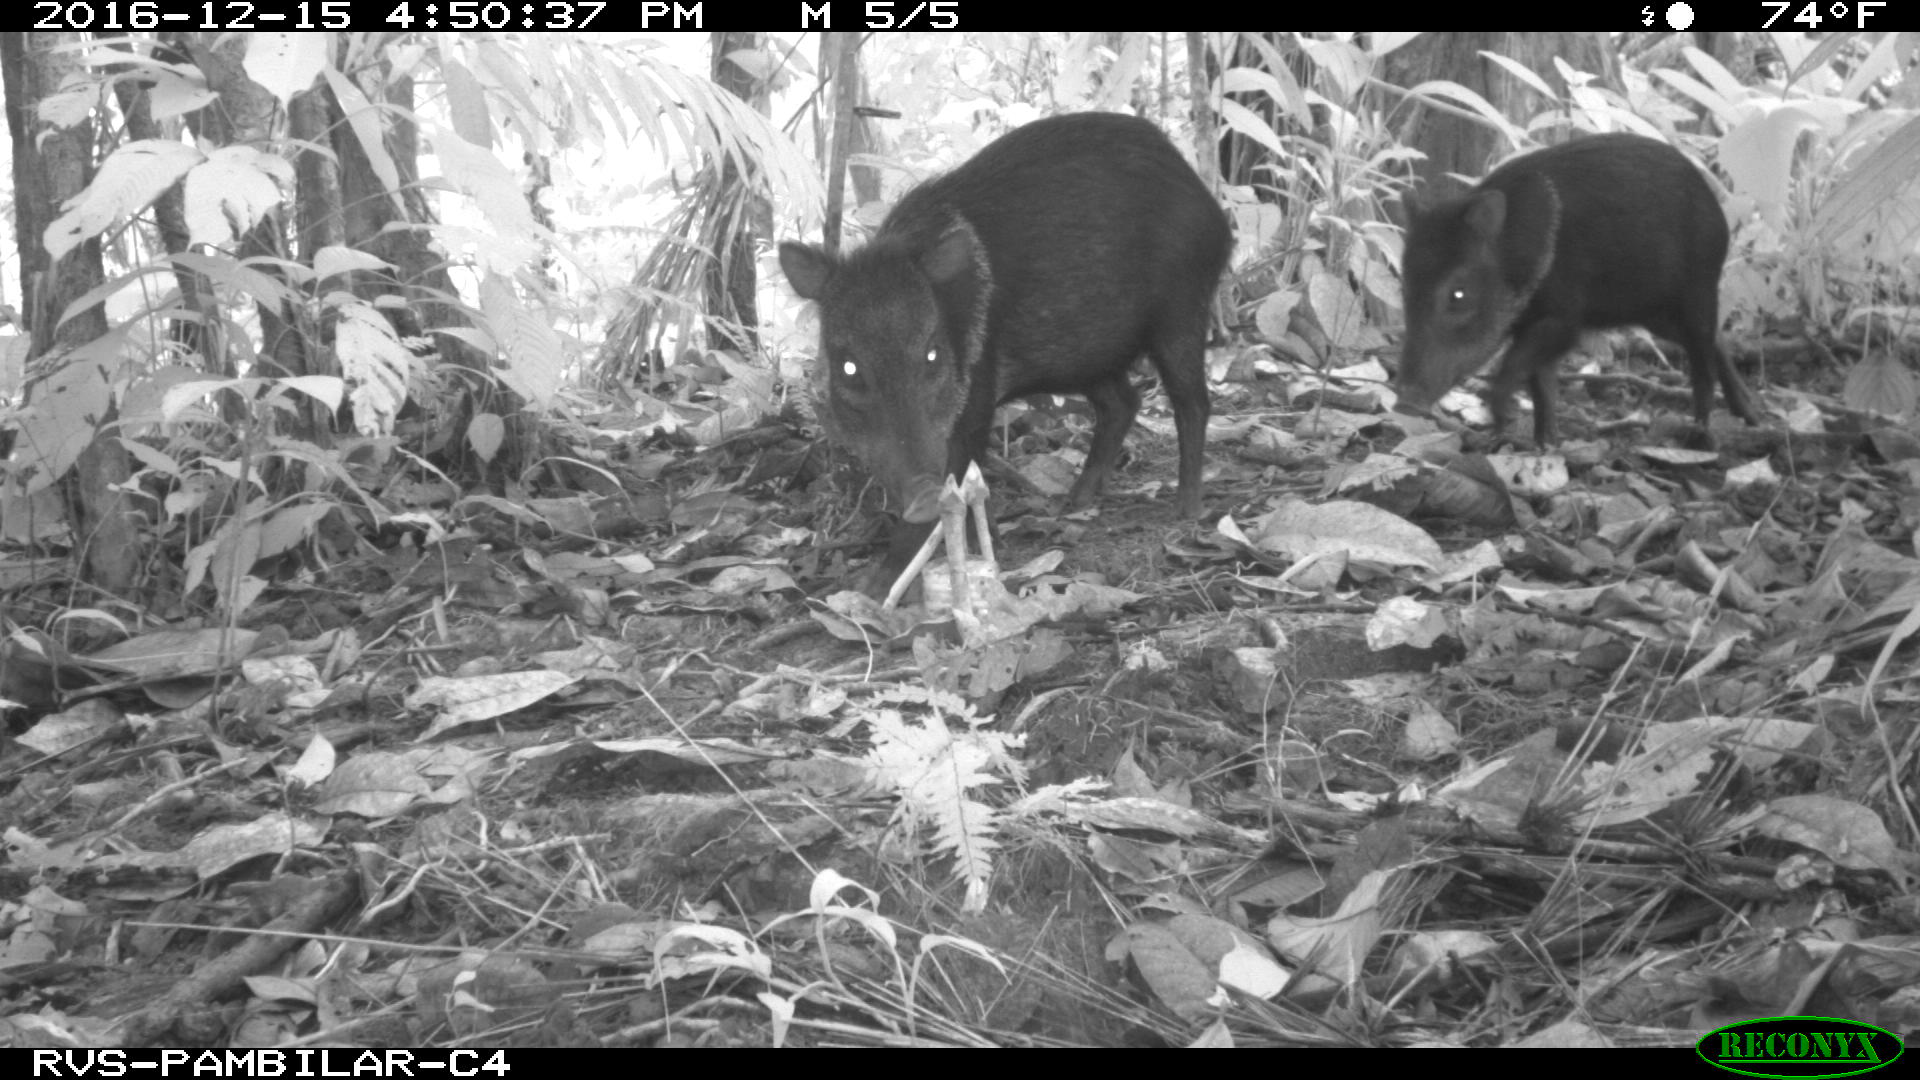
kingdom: Animalia
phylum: Chordata
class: Mammalia
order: Artiodactyla
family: Tayassuidae
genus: Pecari
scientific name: Pecari tajacu
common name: Collared peccary
